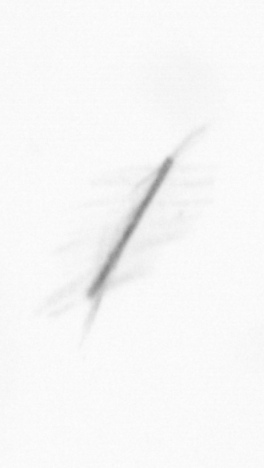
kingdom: Chromista
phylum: Ochrophyta
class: Bacillariophyceae
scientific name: Bacillariophyceae
